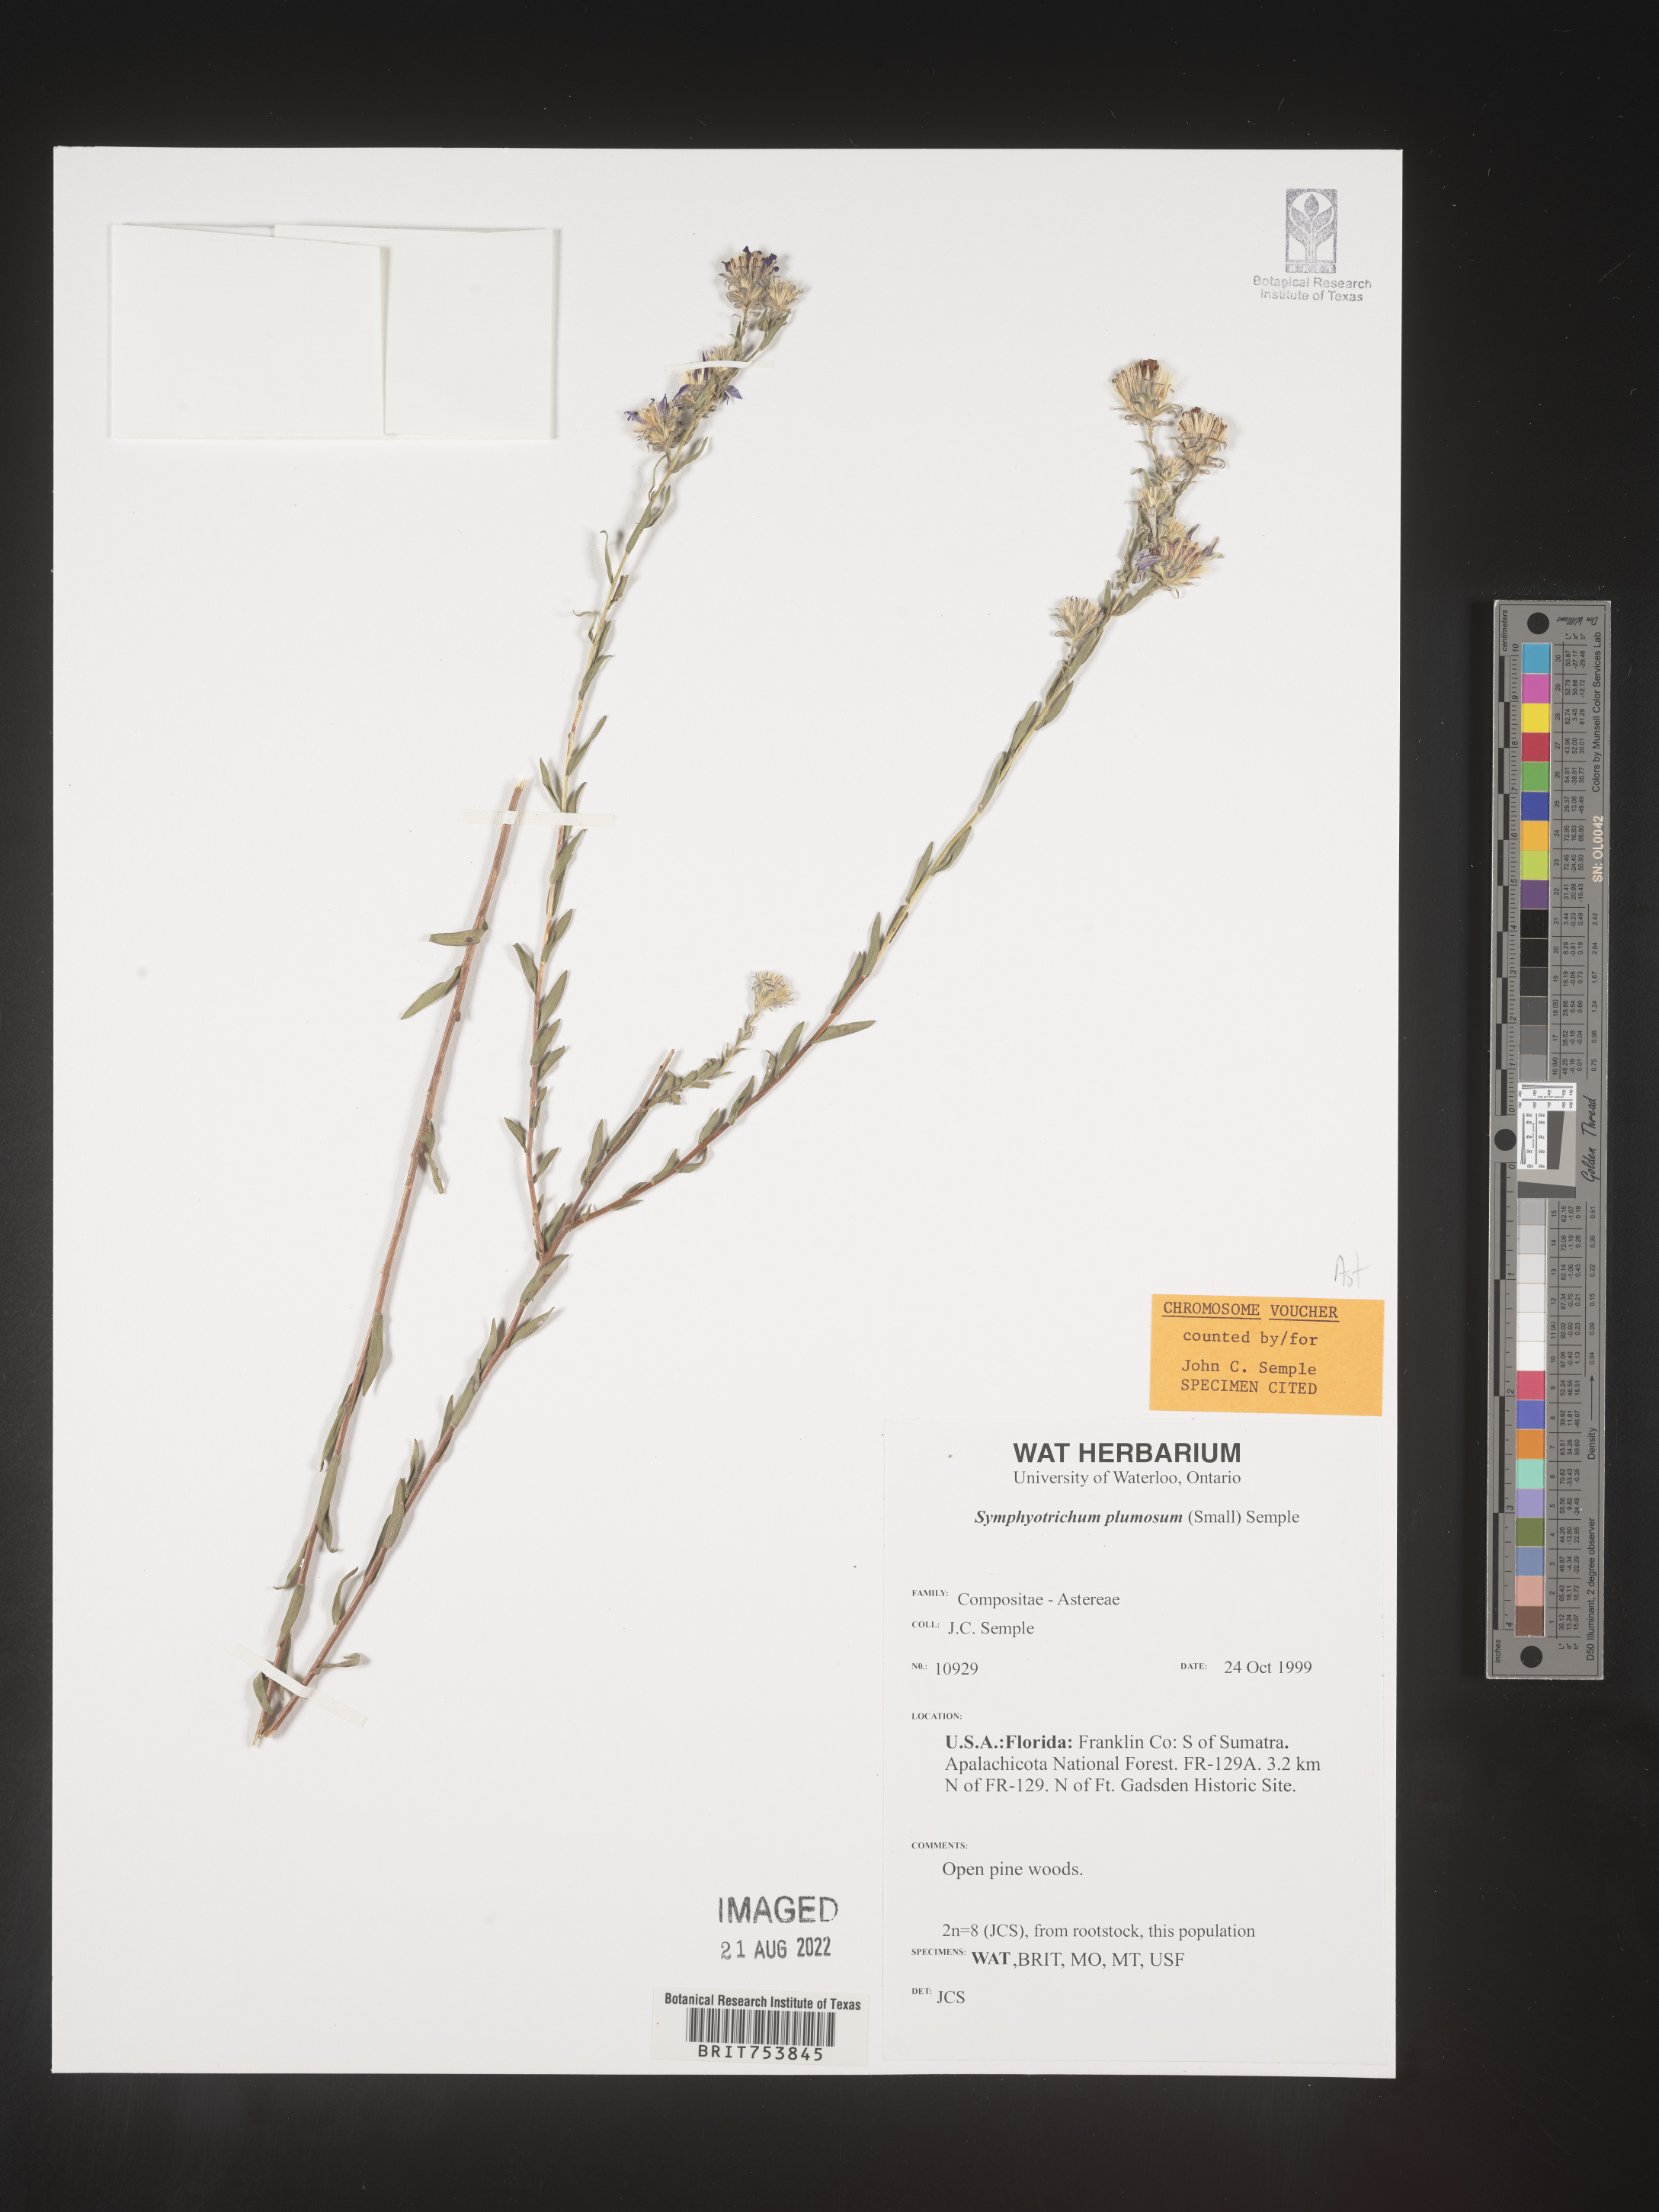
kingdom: Plantae
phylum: Tracheophyta
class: Magnoliopsida
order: Asterales
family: Asteraceae
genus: Symphyotrichum
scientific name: Symphyotrichum plumosum
